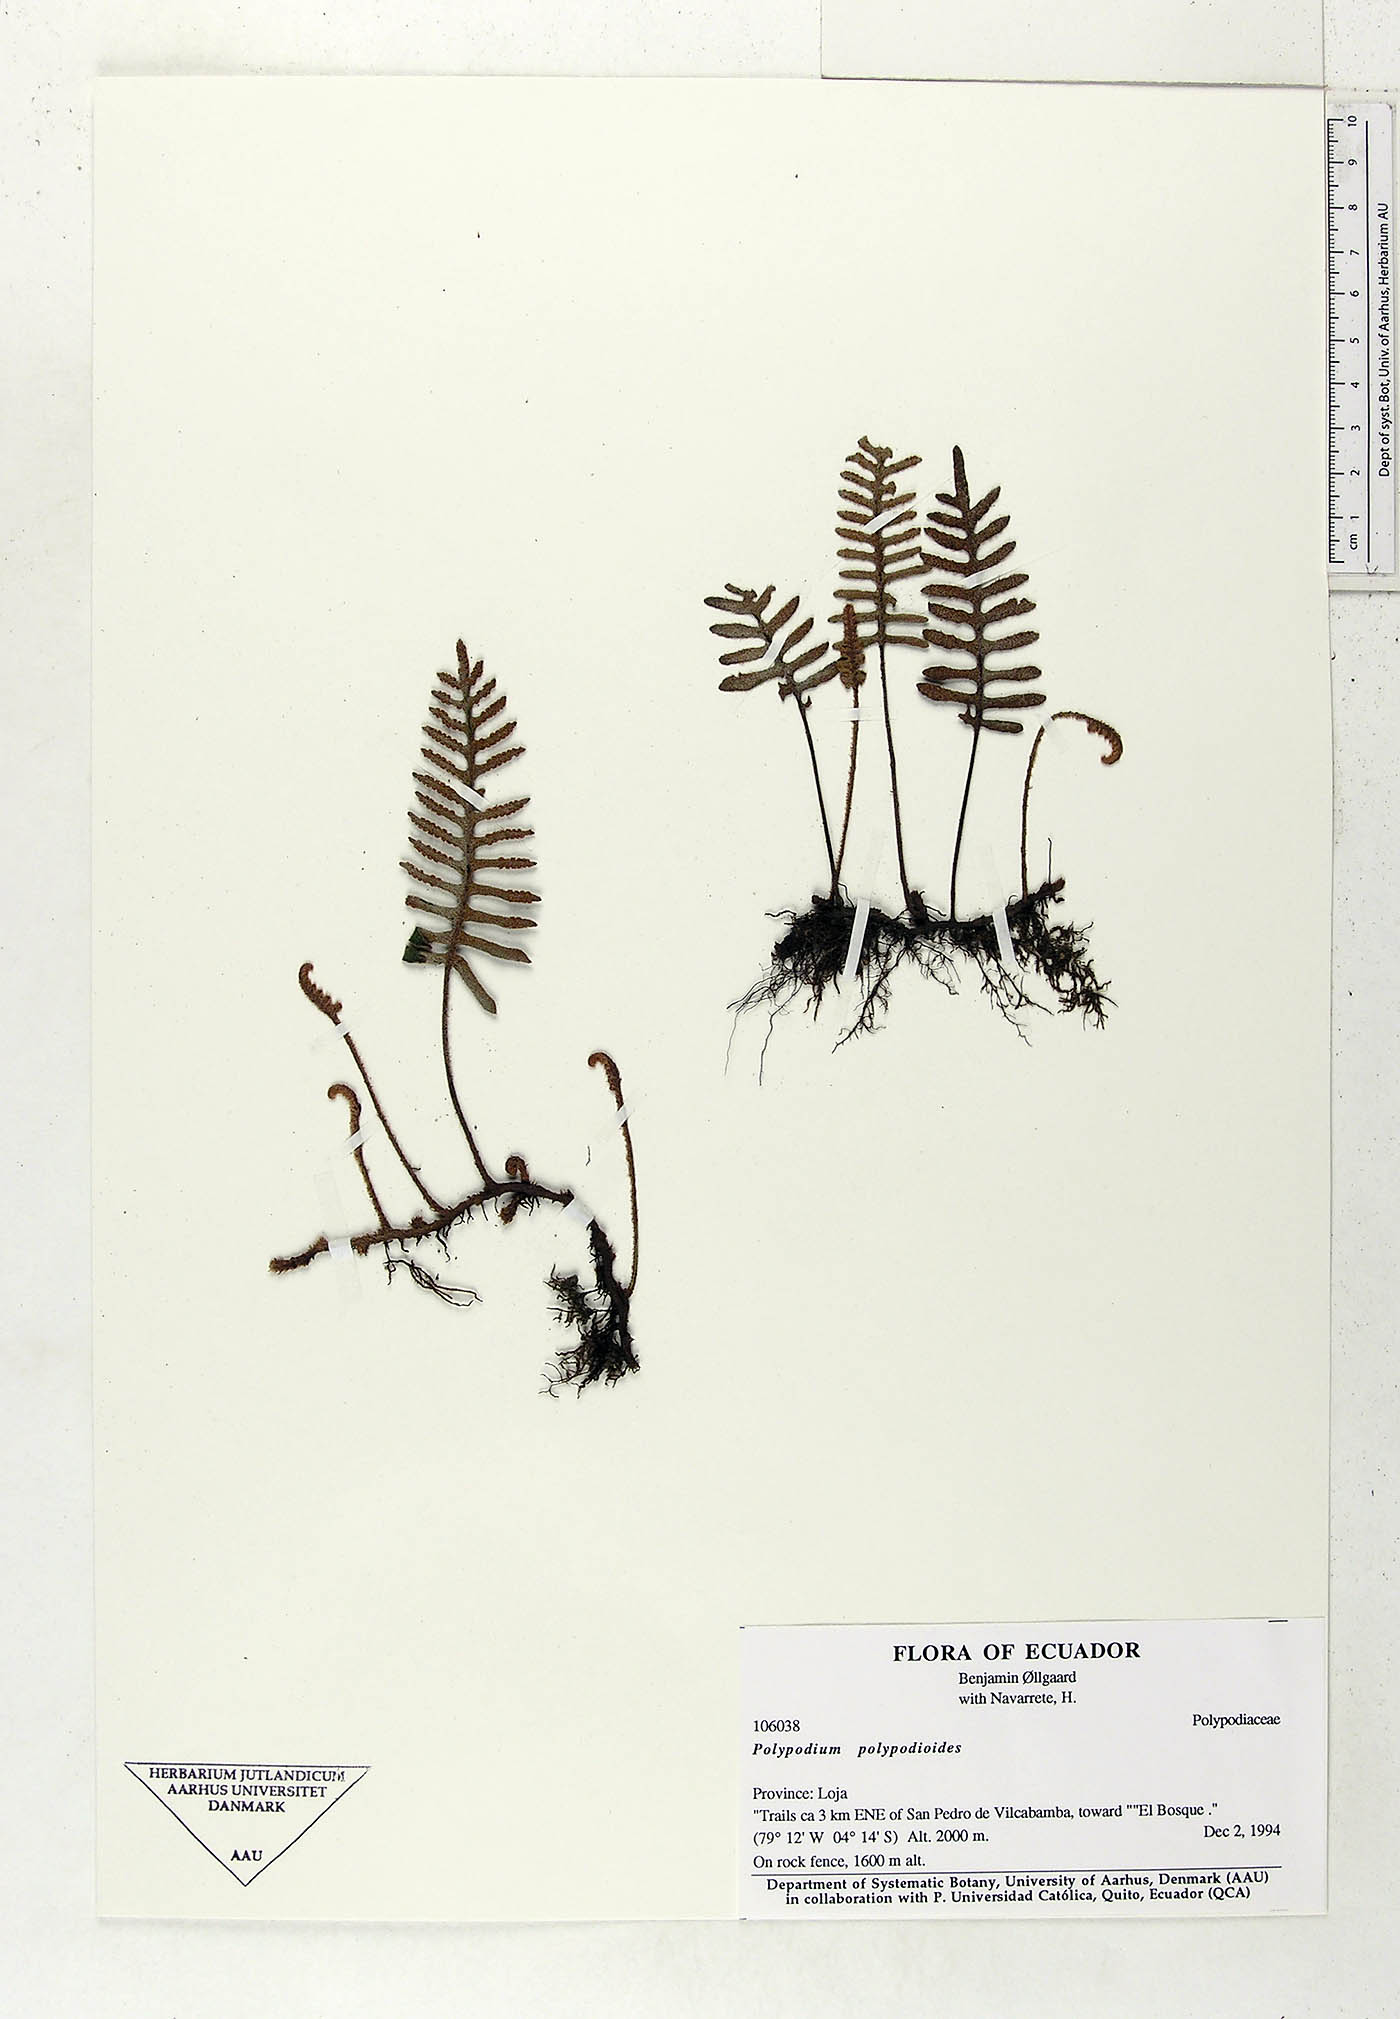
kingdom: Plantae
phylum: Tracheophyta
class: Polypodiopsida
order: Polypodiales
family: Polypodiaceae
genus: Pleopeltis
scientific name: Pleopeltis polypodioides
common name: Resurrection fern
